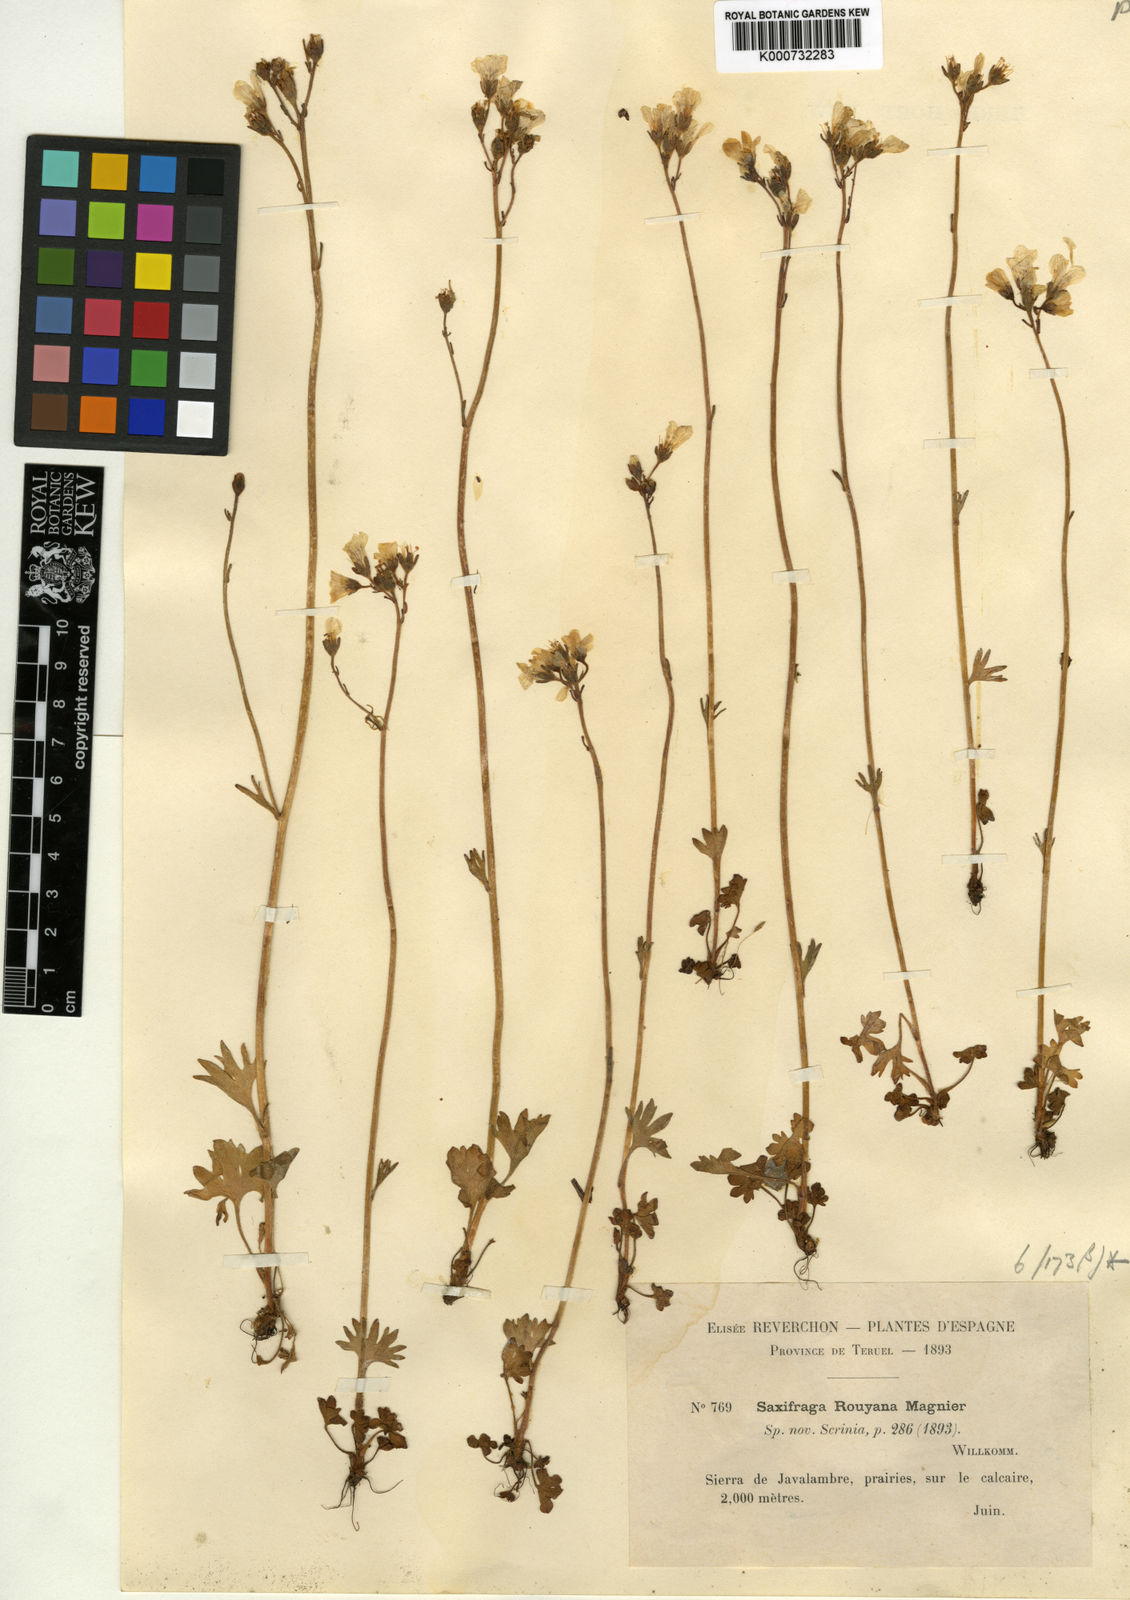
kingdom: Plantae
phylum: Tracheophyta
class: Magnoliopsida
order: Saxifragales
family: Saxifragaceae
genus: Saxifraga
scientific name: Saxifraga granulata
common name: Meadow saxifrage
